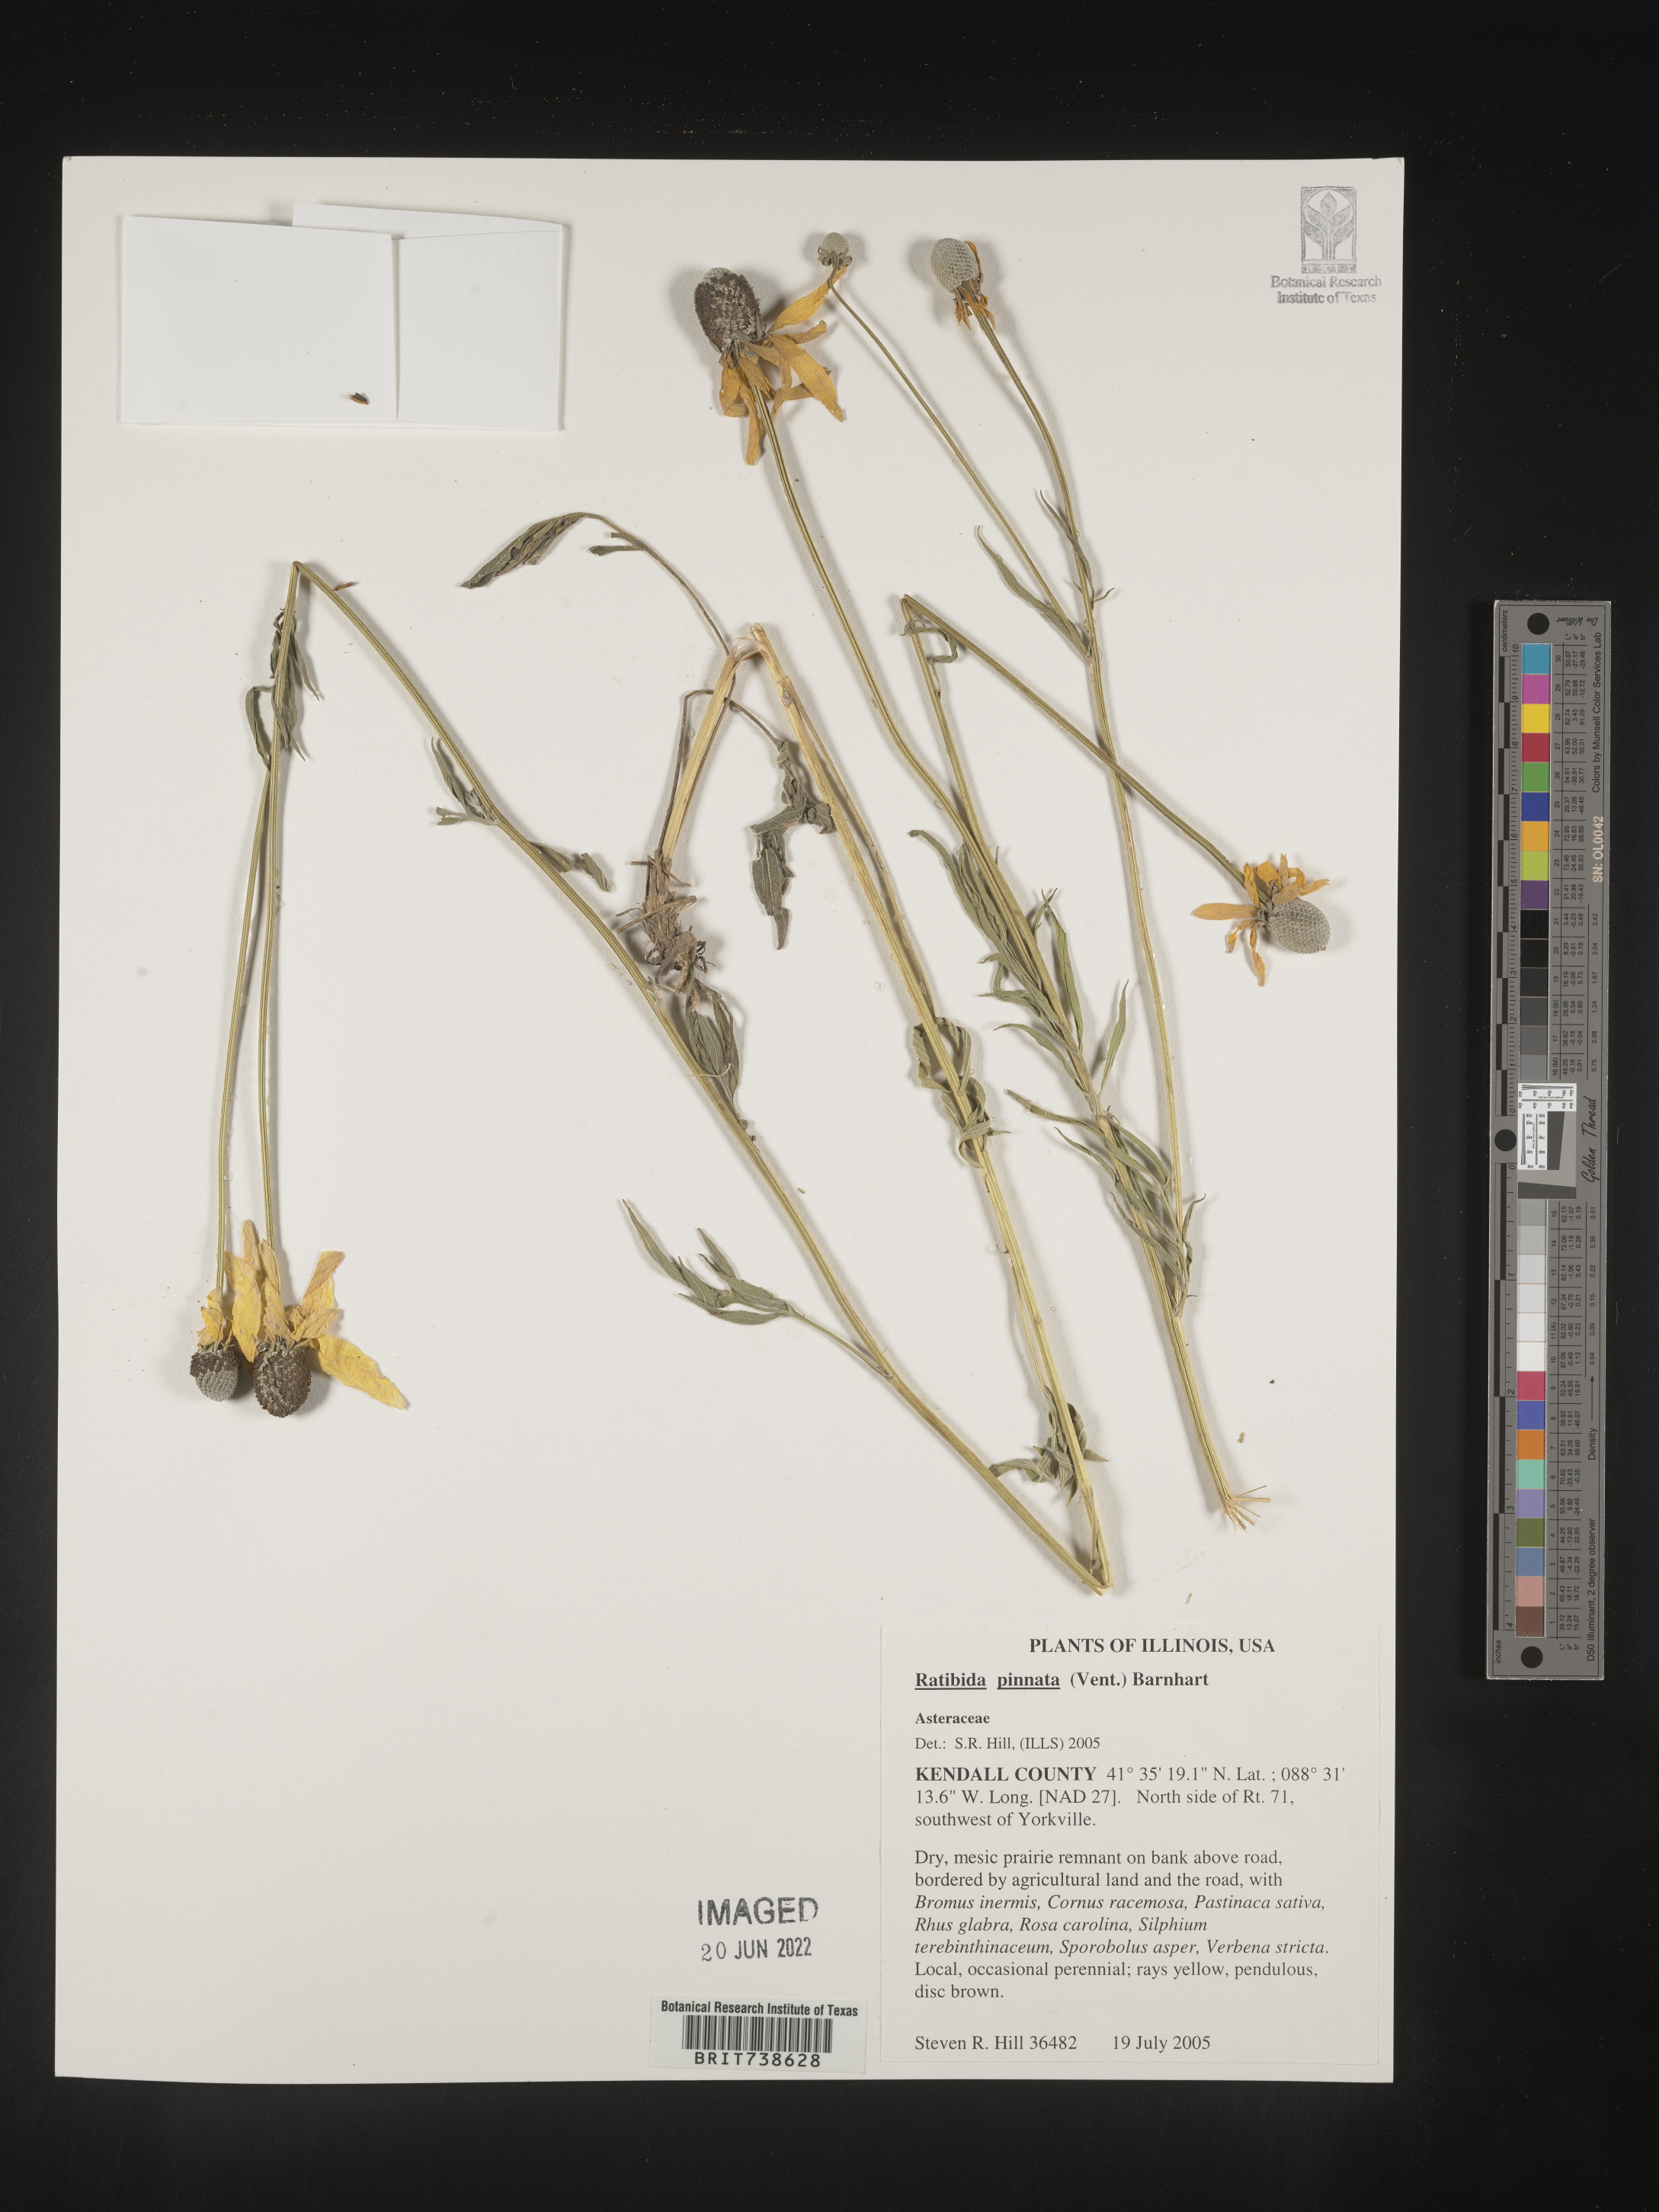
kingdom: Plantae
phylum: Tracheophyta
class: Magnoliopsida
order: Asterales
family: Asteraceae
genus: Ratibida
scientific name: Ratibida pinnata
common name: Drooping prairie-coneflower
